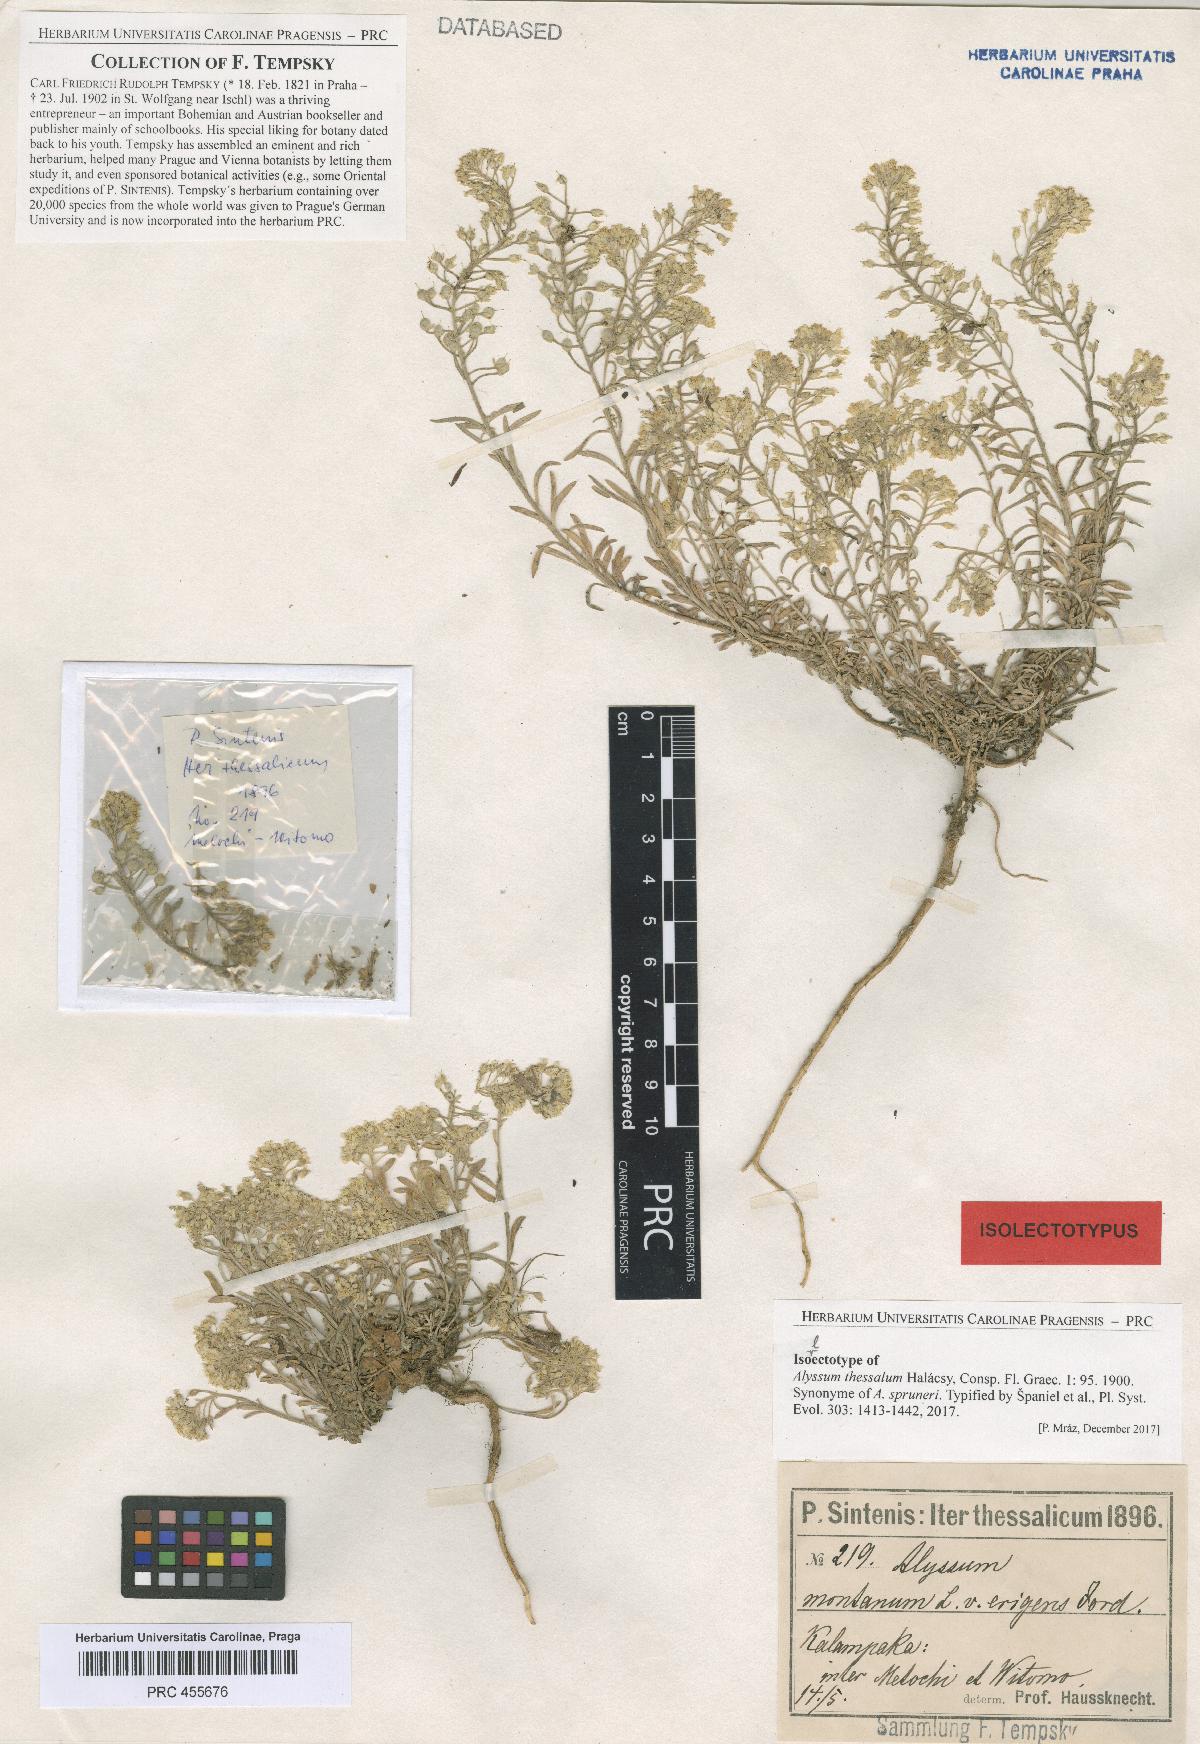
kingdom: Plantae
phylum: Tracheophyta
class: Magnoliopsida
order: Brassicales
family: Brassicaceae
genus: Alyssum
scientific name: Alyssum montanum
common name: Mountain alison
